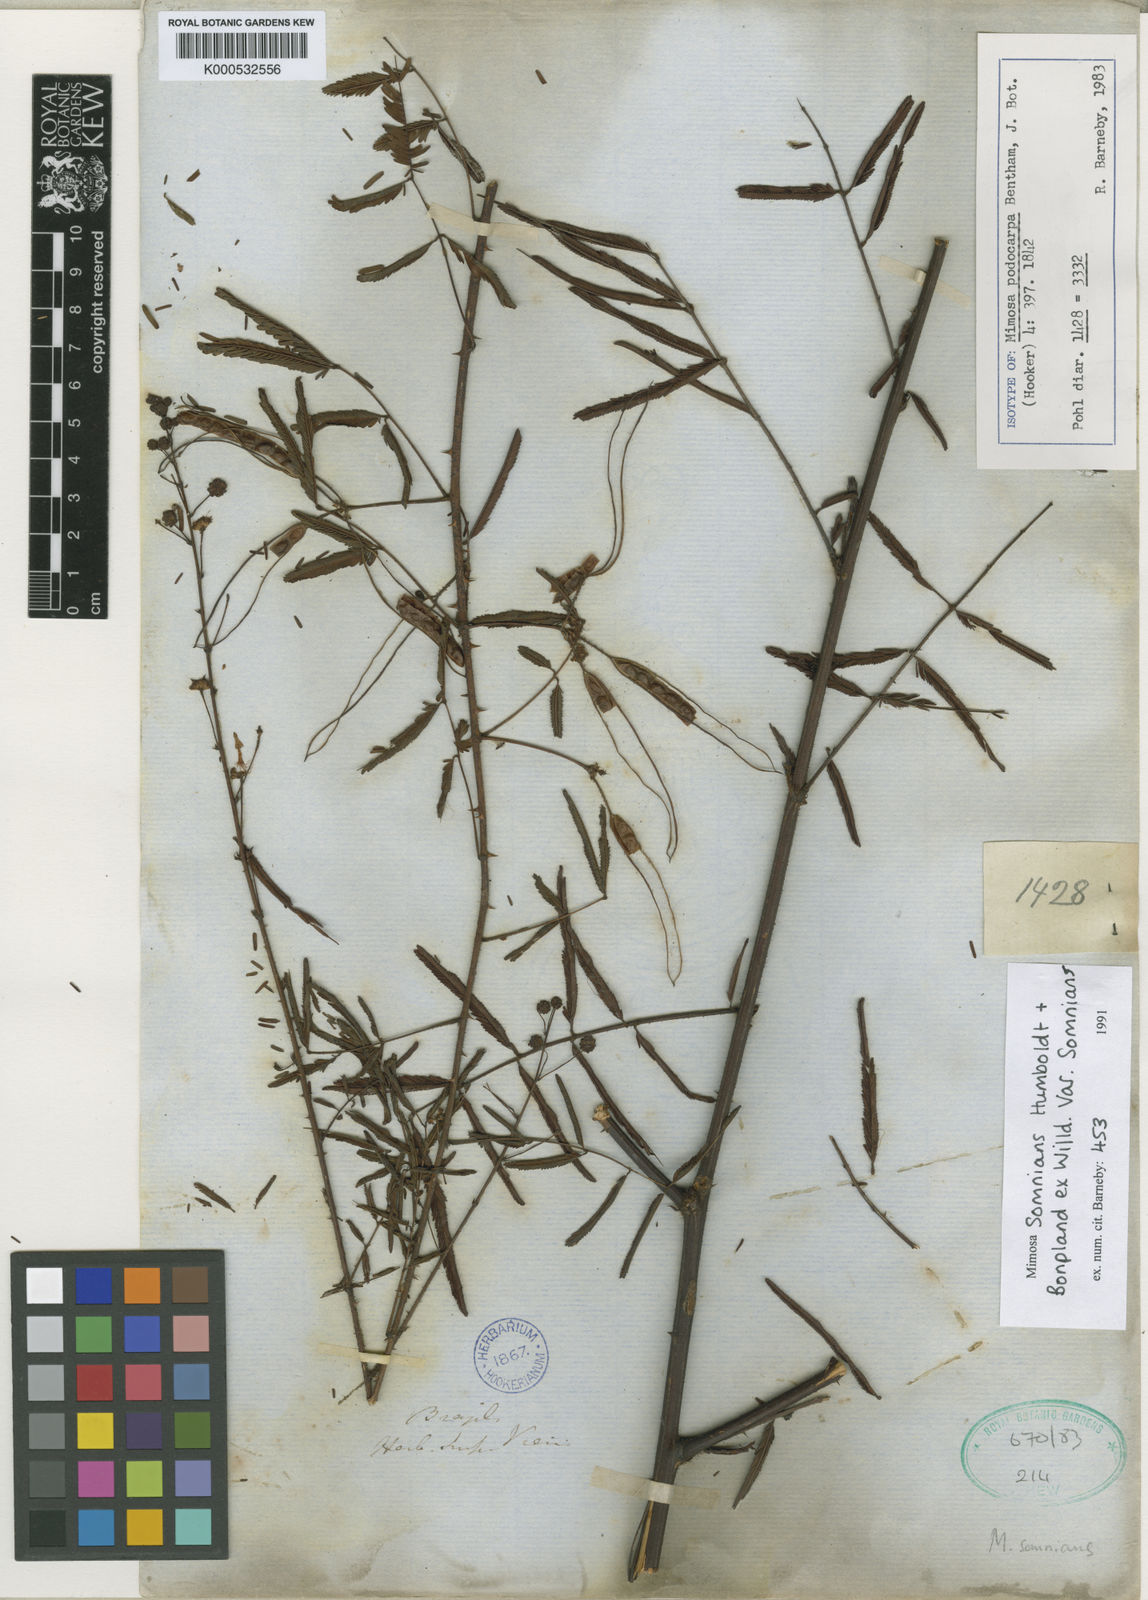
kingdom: Plantae
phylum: Tracheophyta
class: Magnoliopsida
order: Fabales
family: Fabaceae
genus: Mimosa
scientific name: Mimosa somnians
